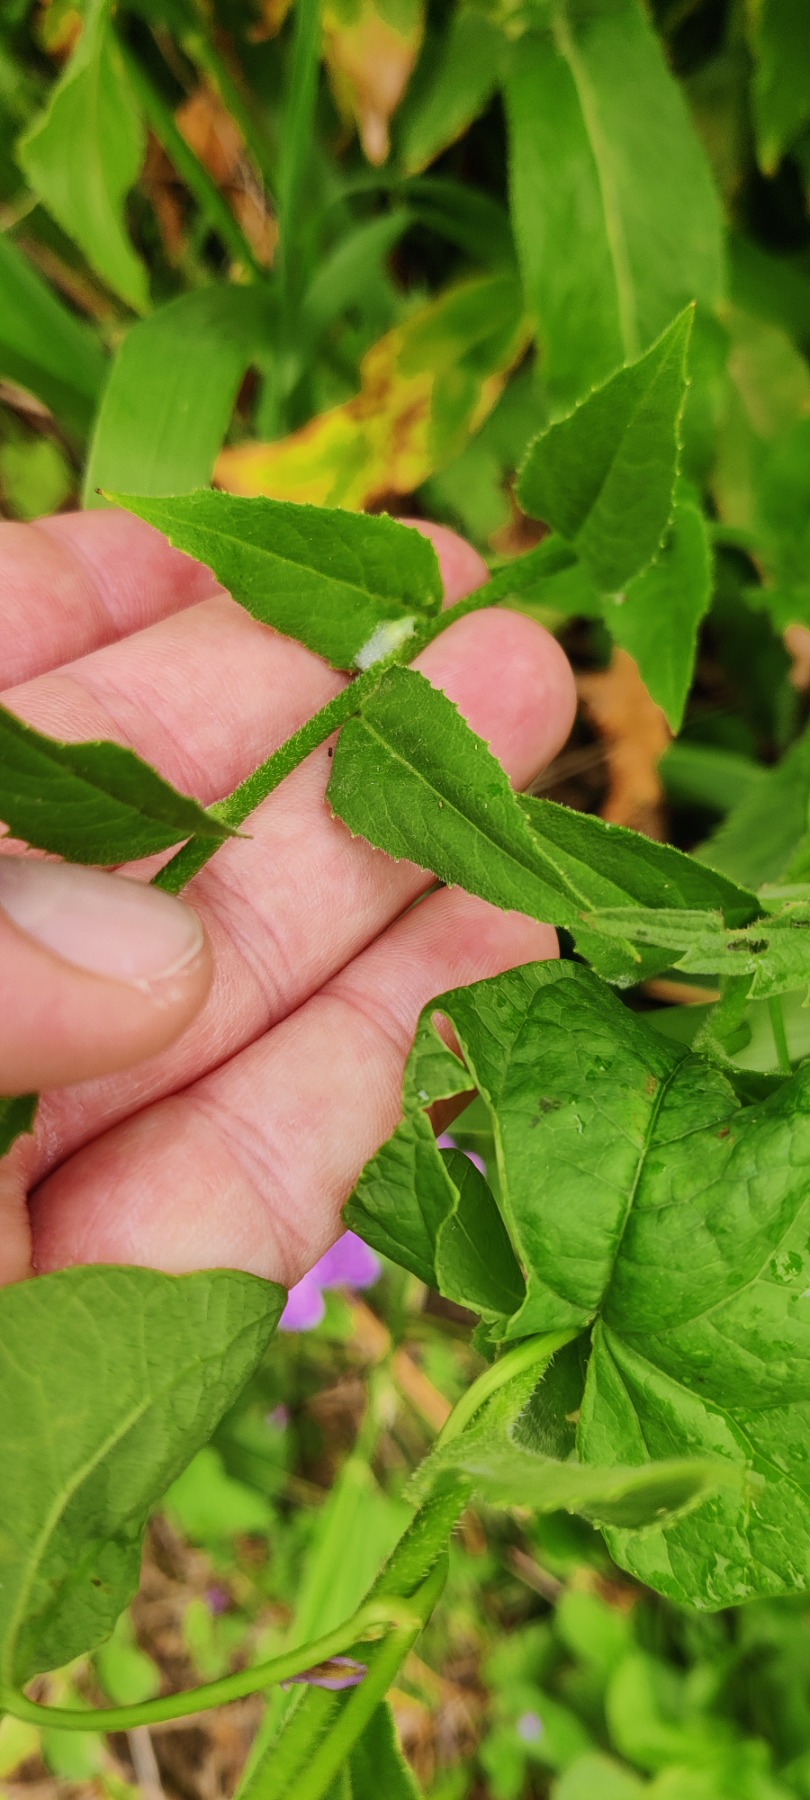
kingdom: Plantae
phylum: Tracheophyta
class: Magnoliopsida
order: Brassicales
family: Brassicaceae
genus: Hesperis
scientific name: Hesperis matronalis
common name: Aftenstjerne
